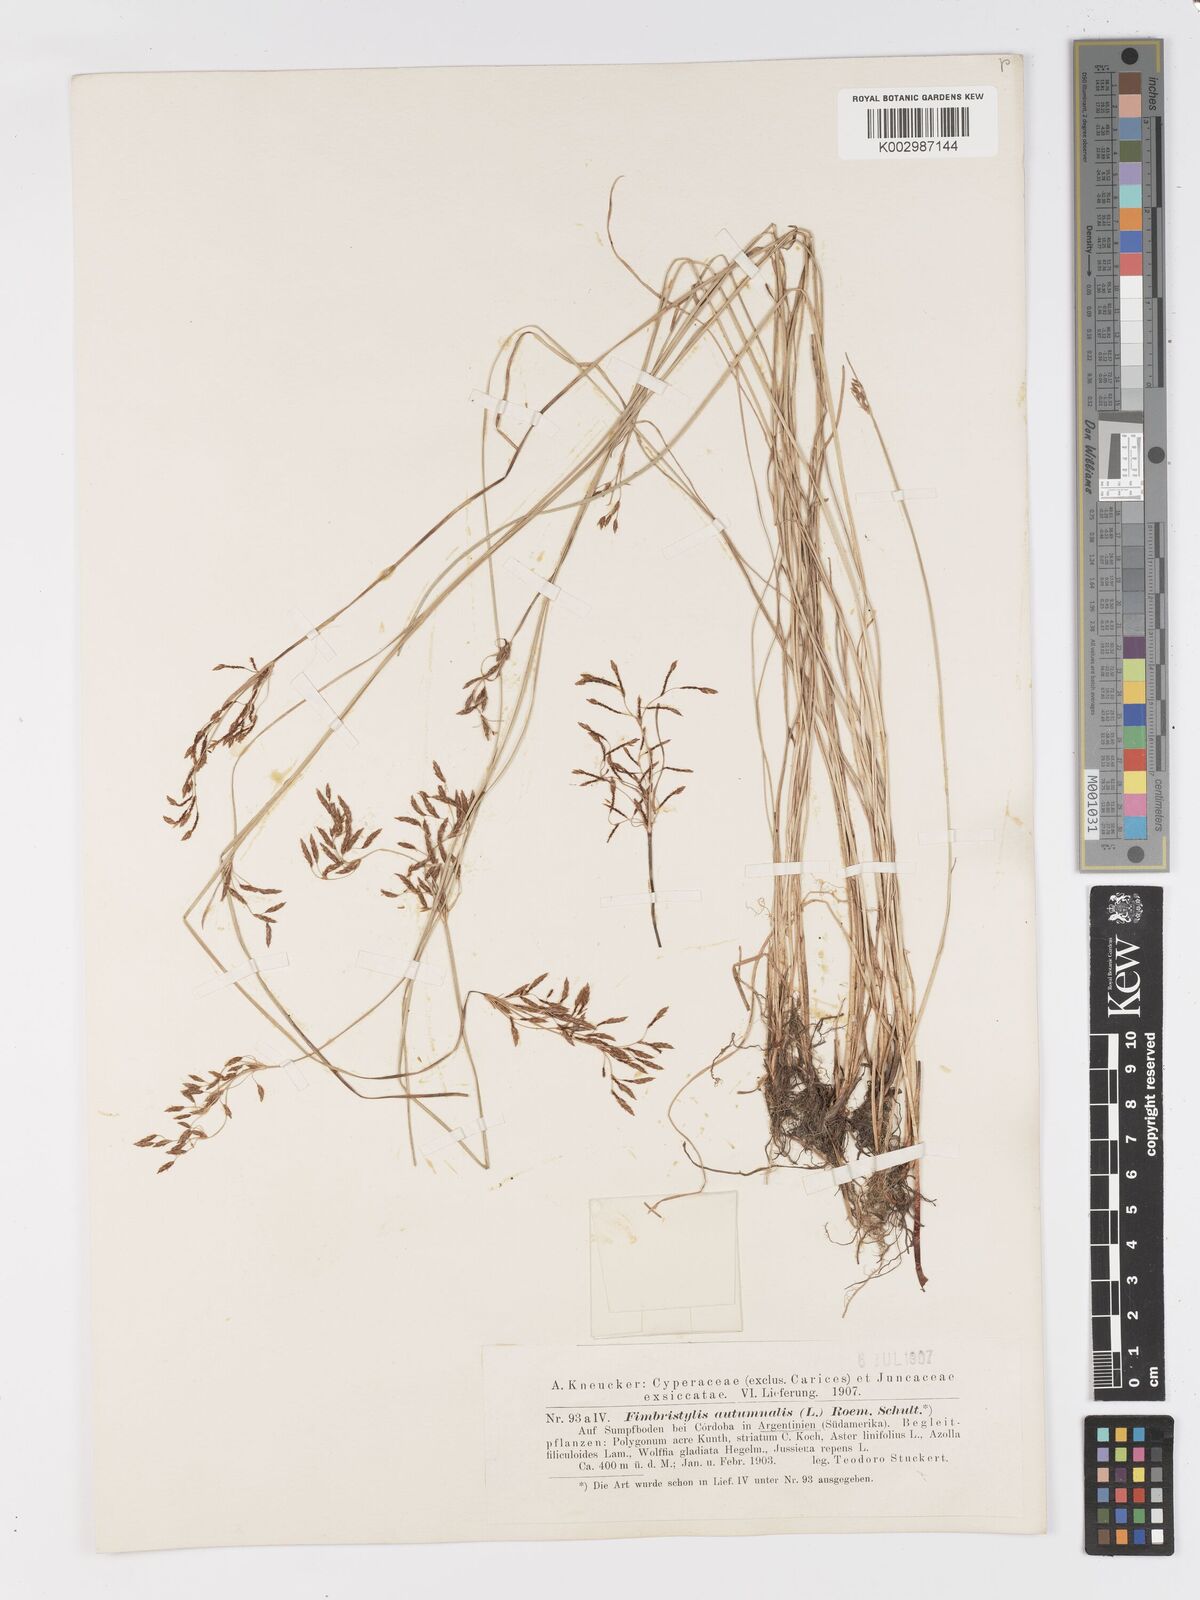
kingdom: Plantae
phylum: Tracheophyta
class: Liliopsida
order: Poales
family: Cyperaceae
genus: Fimbristylis
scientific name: Fimbristylis autumnalis
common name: Slender fimbristylis
